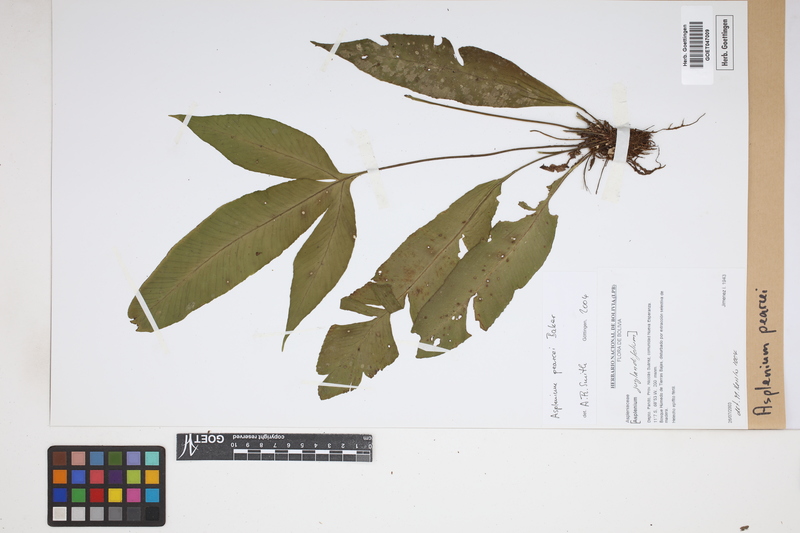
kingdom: Plantae
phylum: Tracheophyta
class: Polypodiopsida
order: Polypodiales
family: Aspleniaceae
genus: Asplenium
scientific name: Asplenium pearcei
